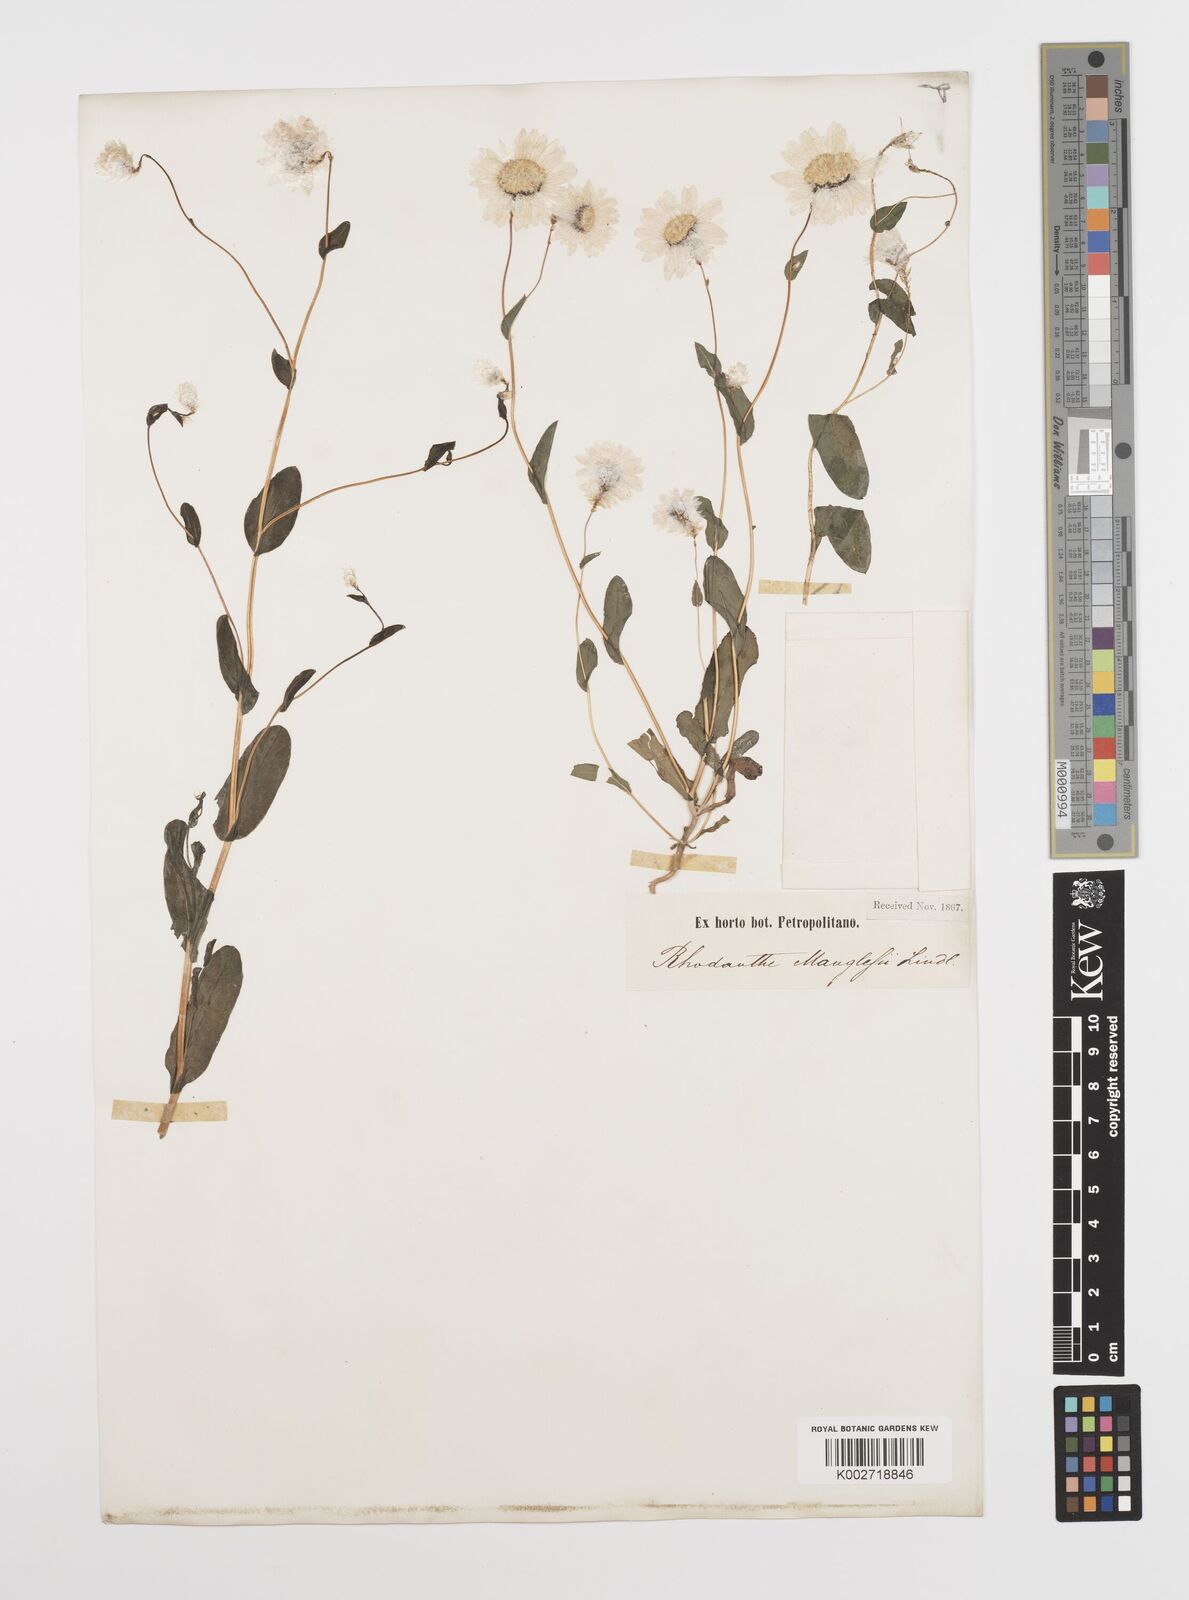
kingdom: Plantae
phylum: Tracheophyta
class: Magnoliopsida
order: Asterales
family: Asteraceae
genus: Rhodanthe
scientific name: Rhodanthe manglesii
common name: Pink sunray
